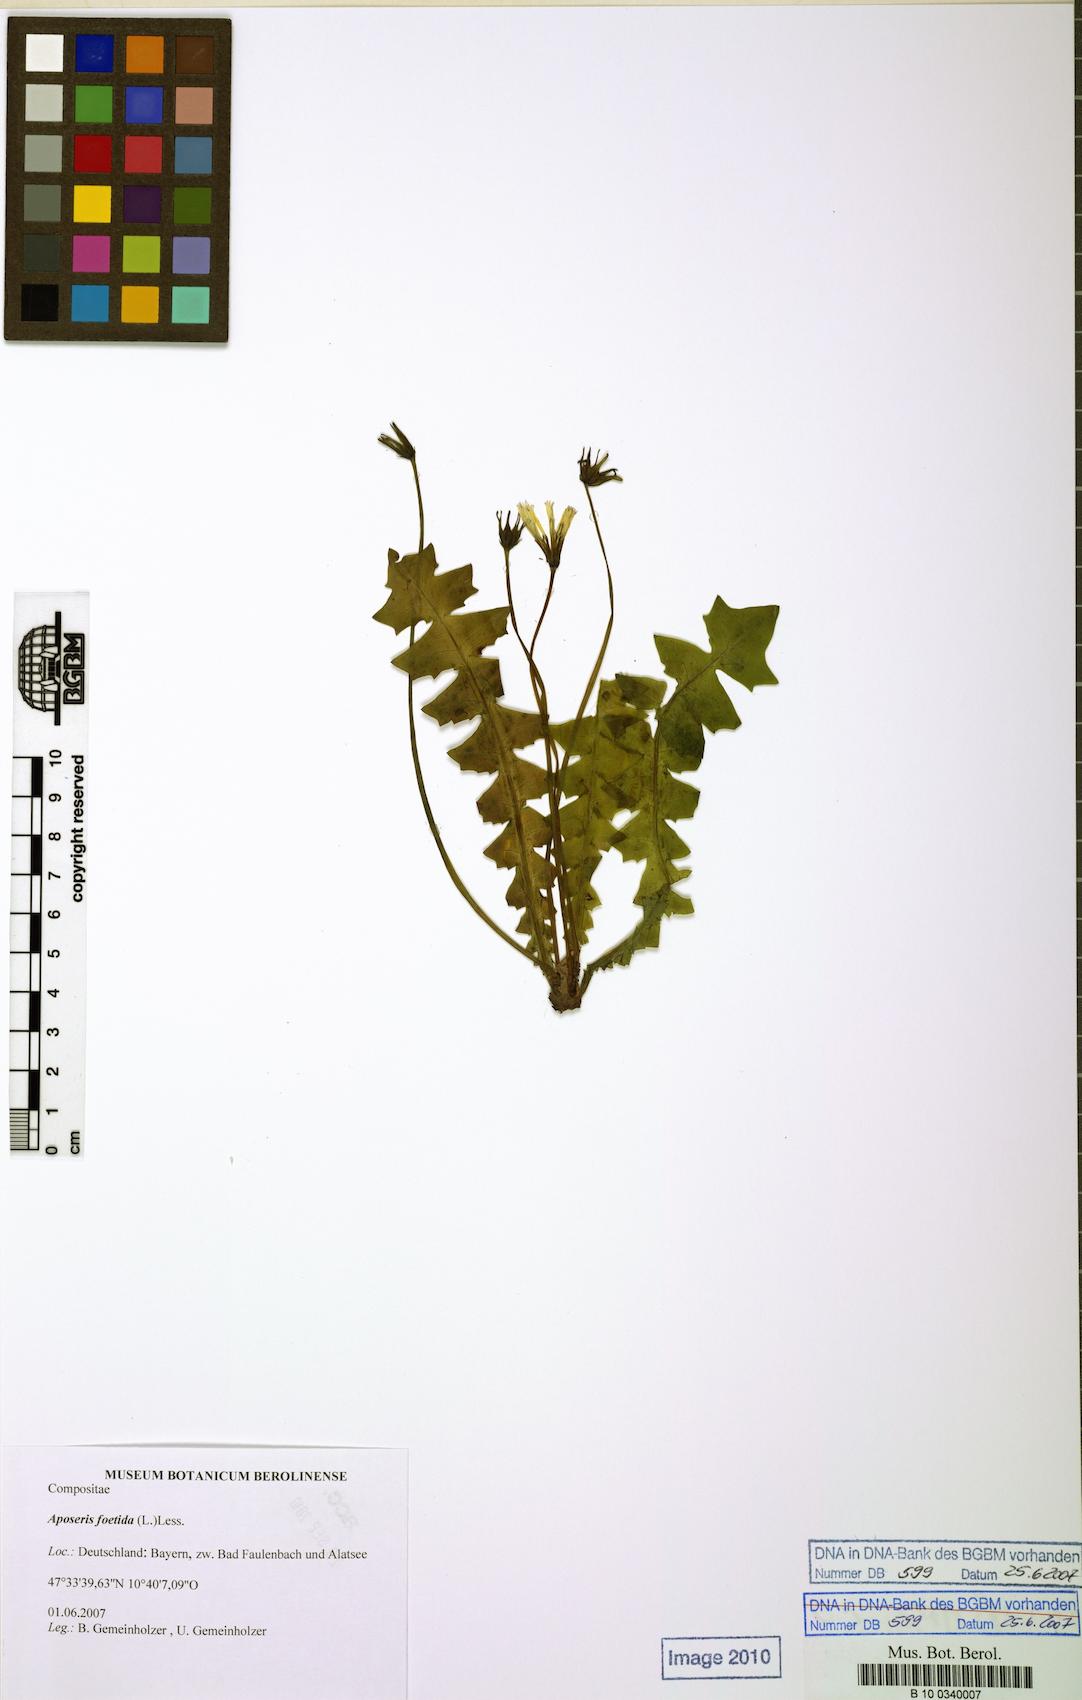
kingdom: Plantae
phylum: Tracheophyta
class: Magnoliopsida
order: Asterales
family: Asteraceae
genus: Aposeris
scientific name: Aposeris foetida
